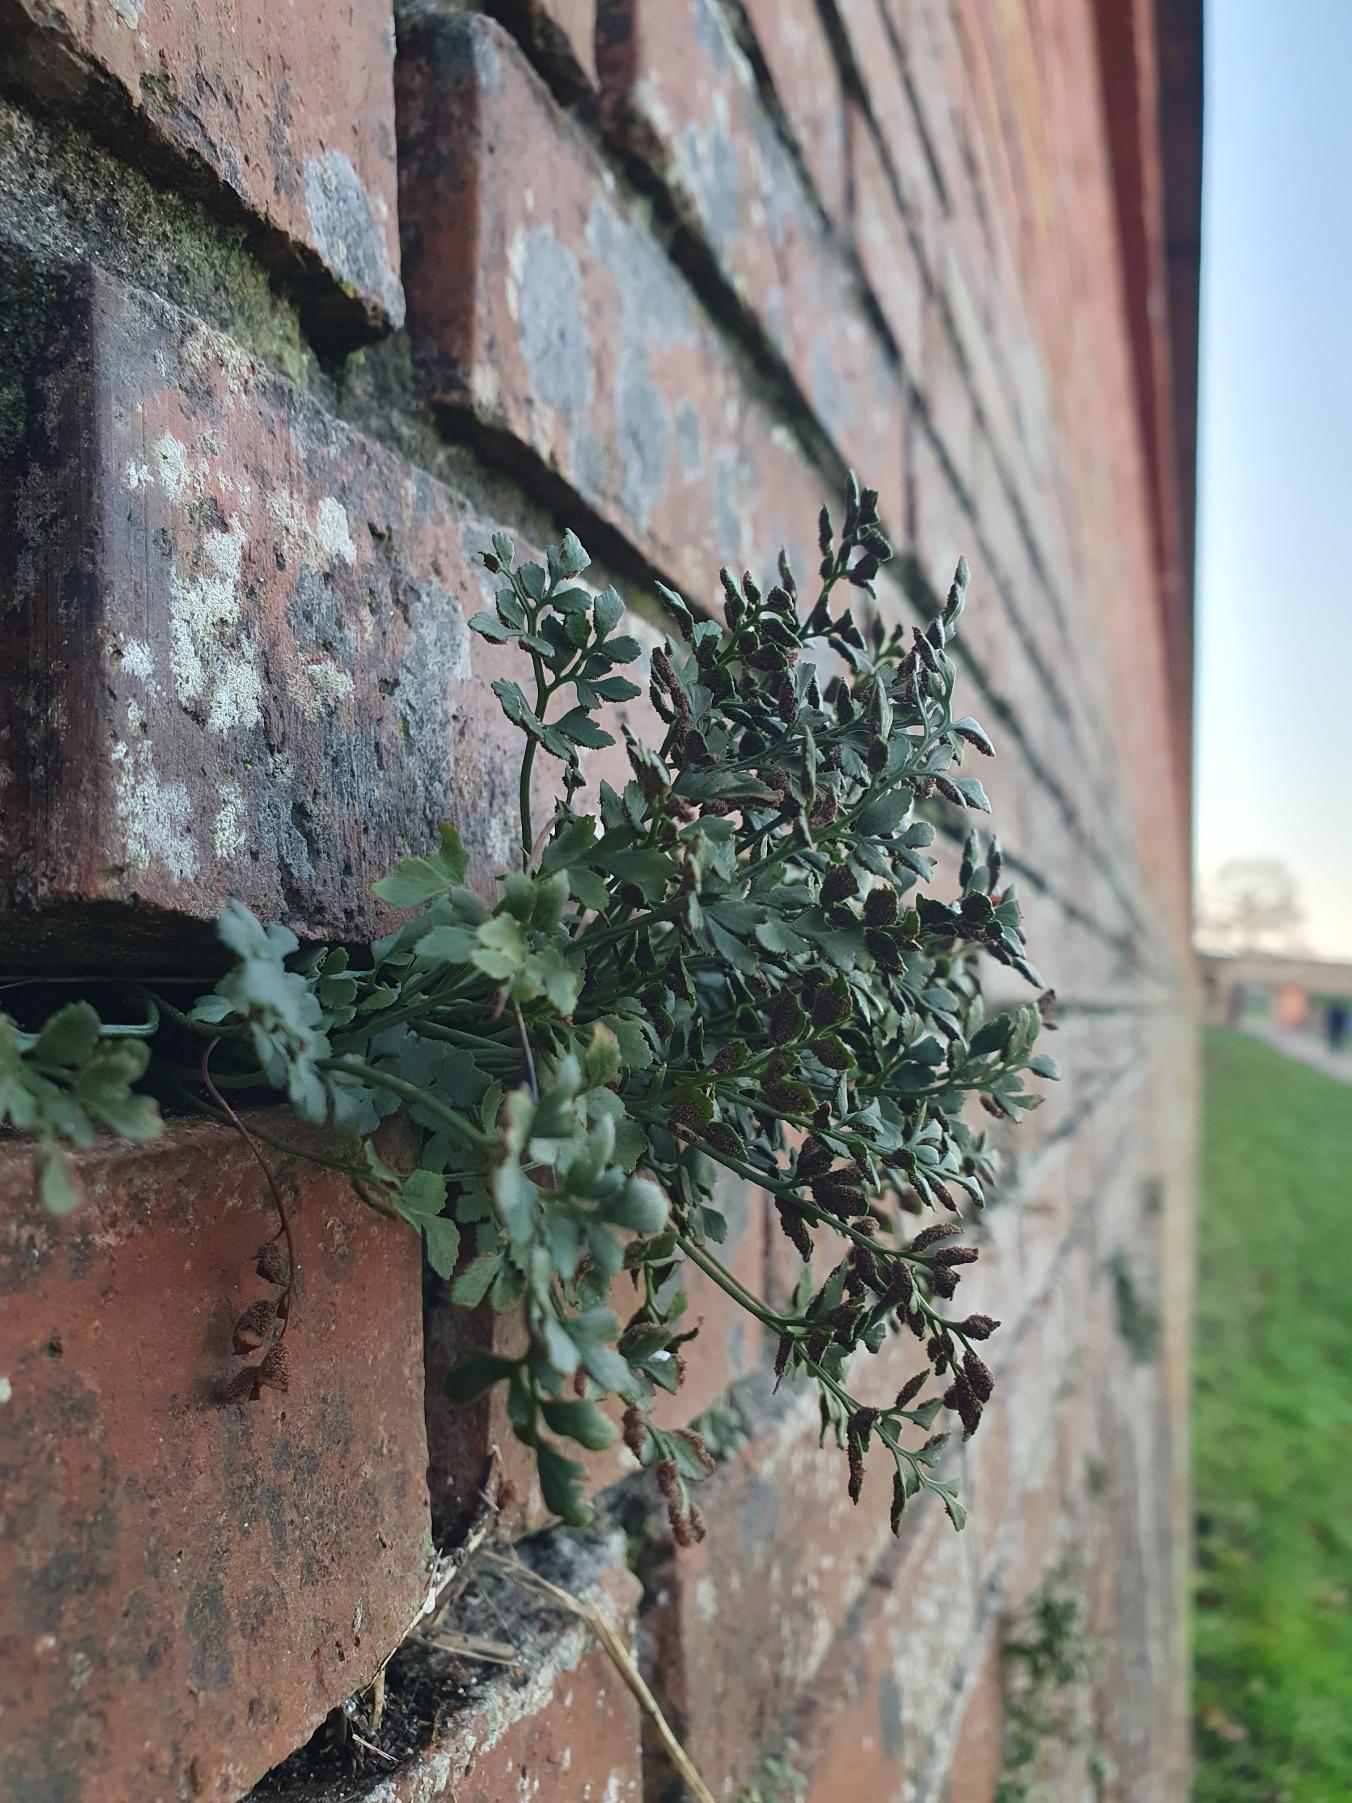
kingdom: Plantae
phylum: Tracheophyta
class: Polypodiopsida
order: Polypodiales
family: Aspleniaceae
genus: Asplenium
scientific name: Asplenium ruta-muraria
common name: Murrude
